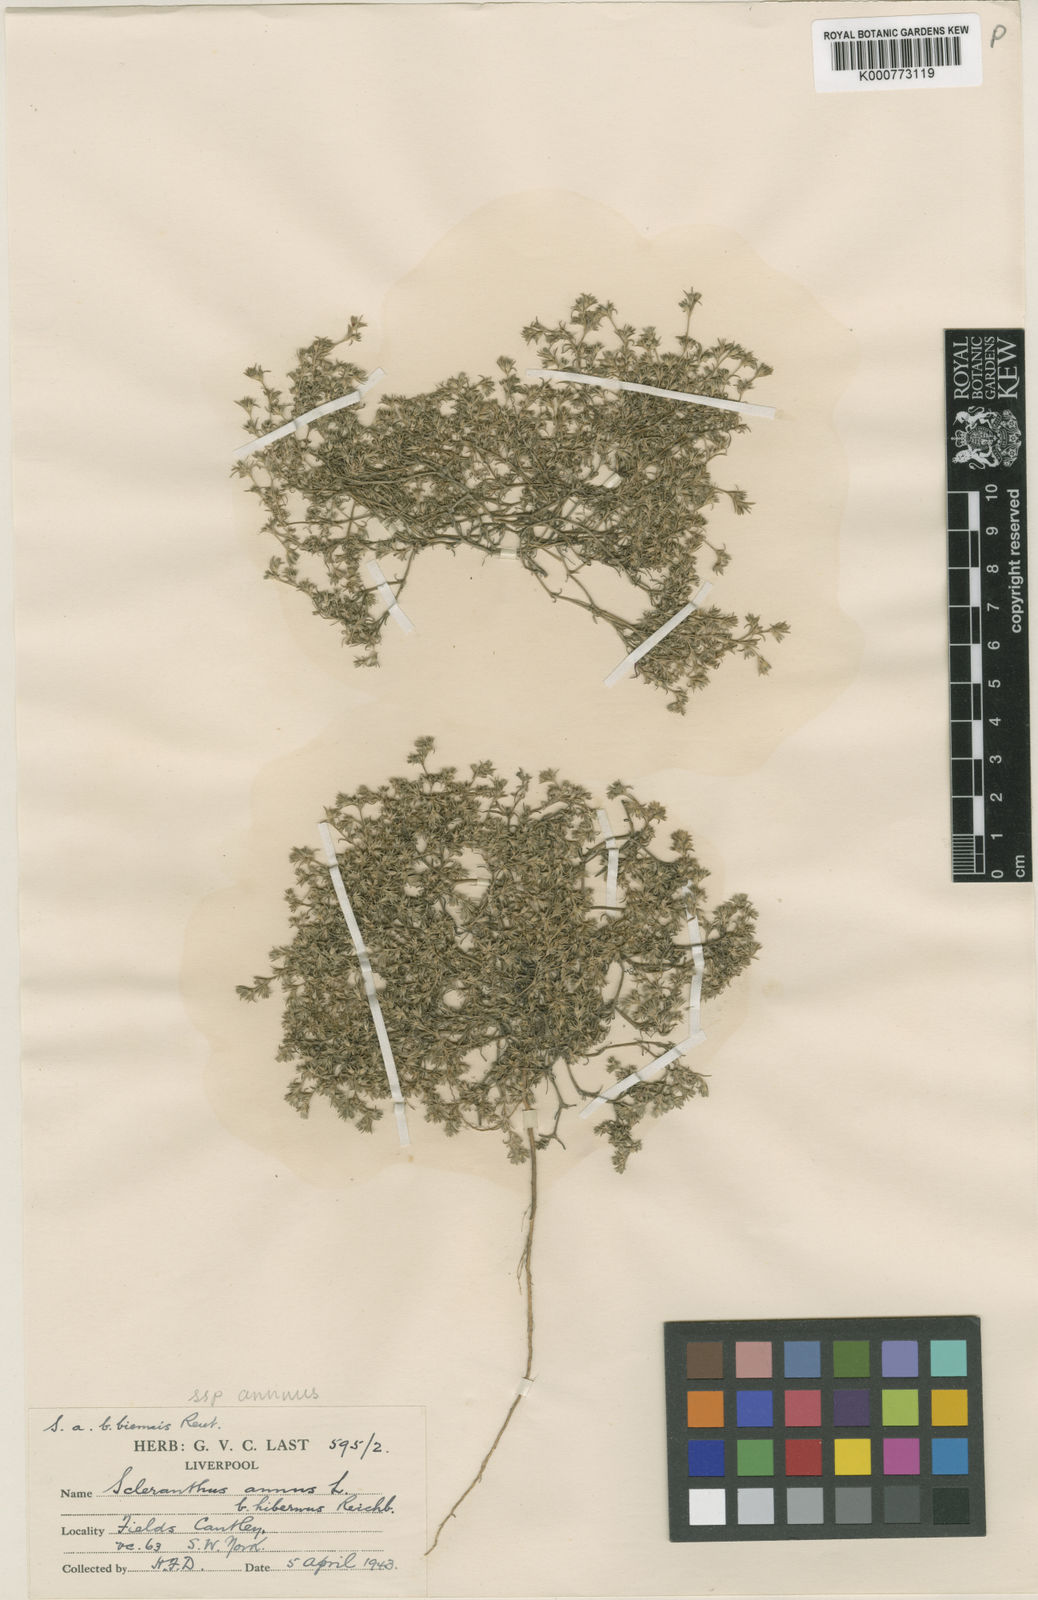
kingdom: Plantae
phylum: Tracheophyta
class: Magnoliopsida
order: Caryophyllales
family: Caryophyllaceae
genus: Scleranthus
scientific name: Scleranthus annuus
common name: Annual knawel
